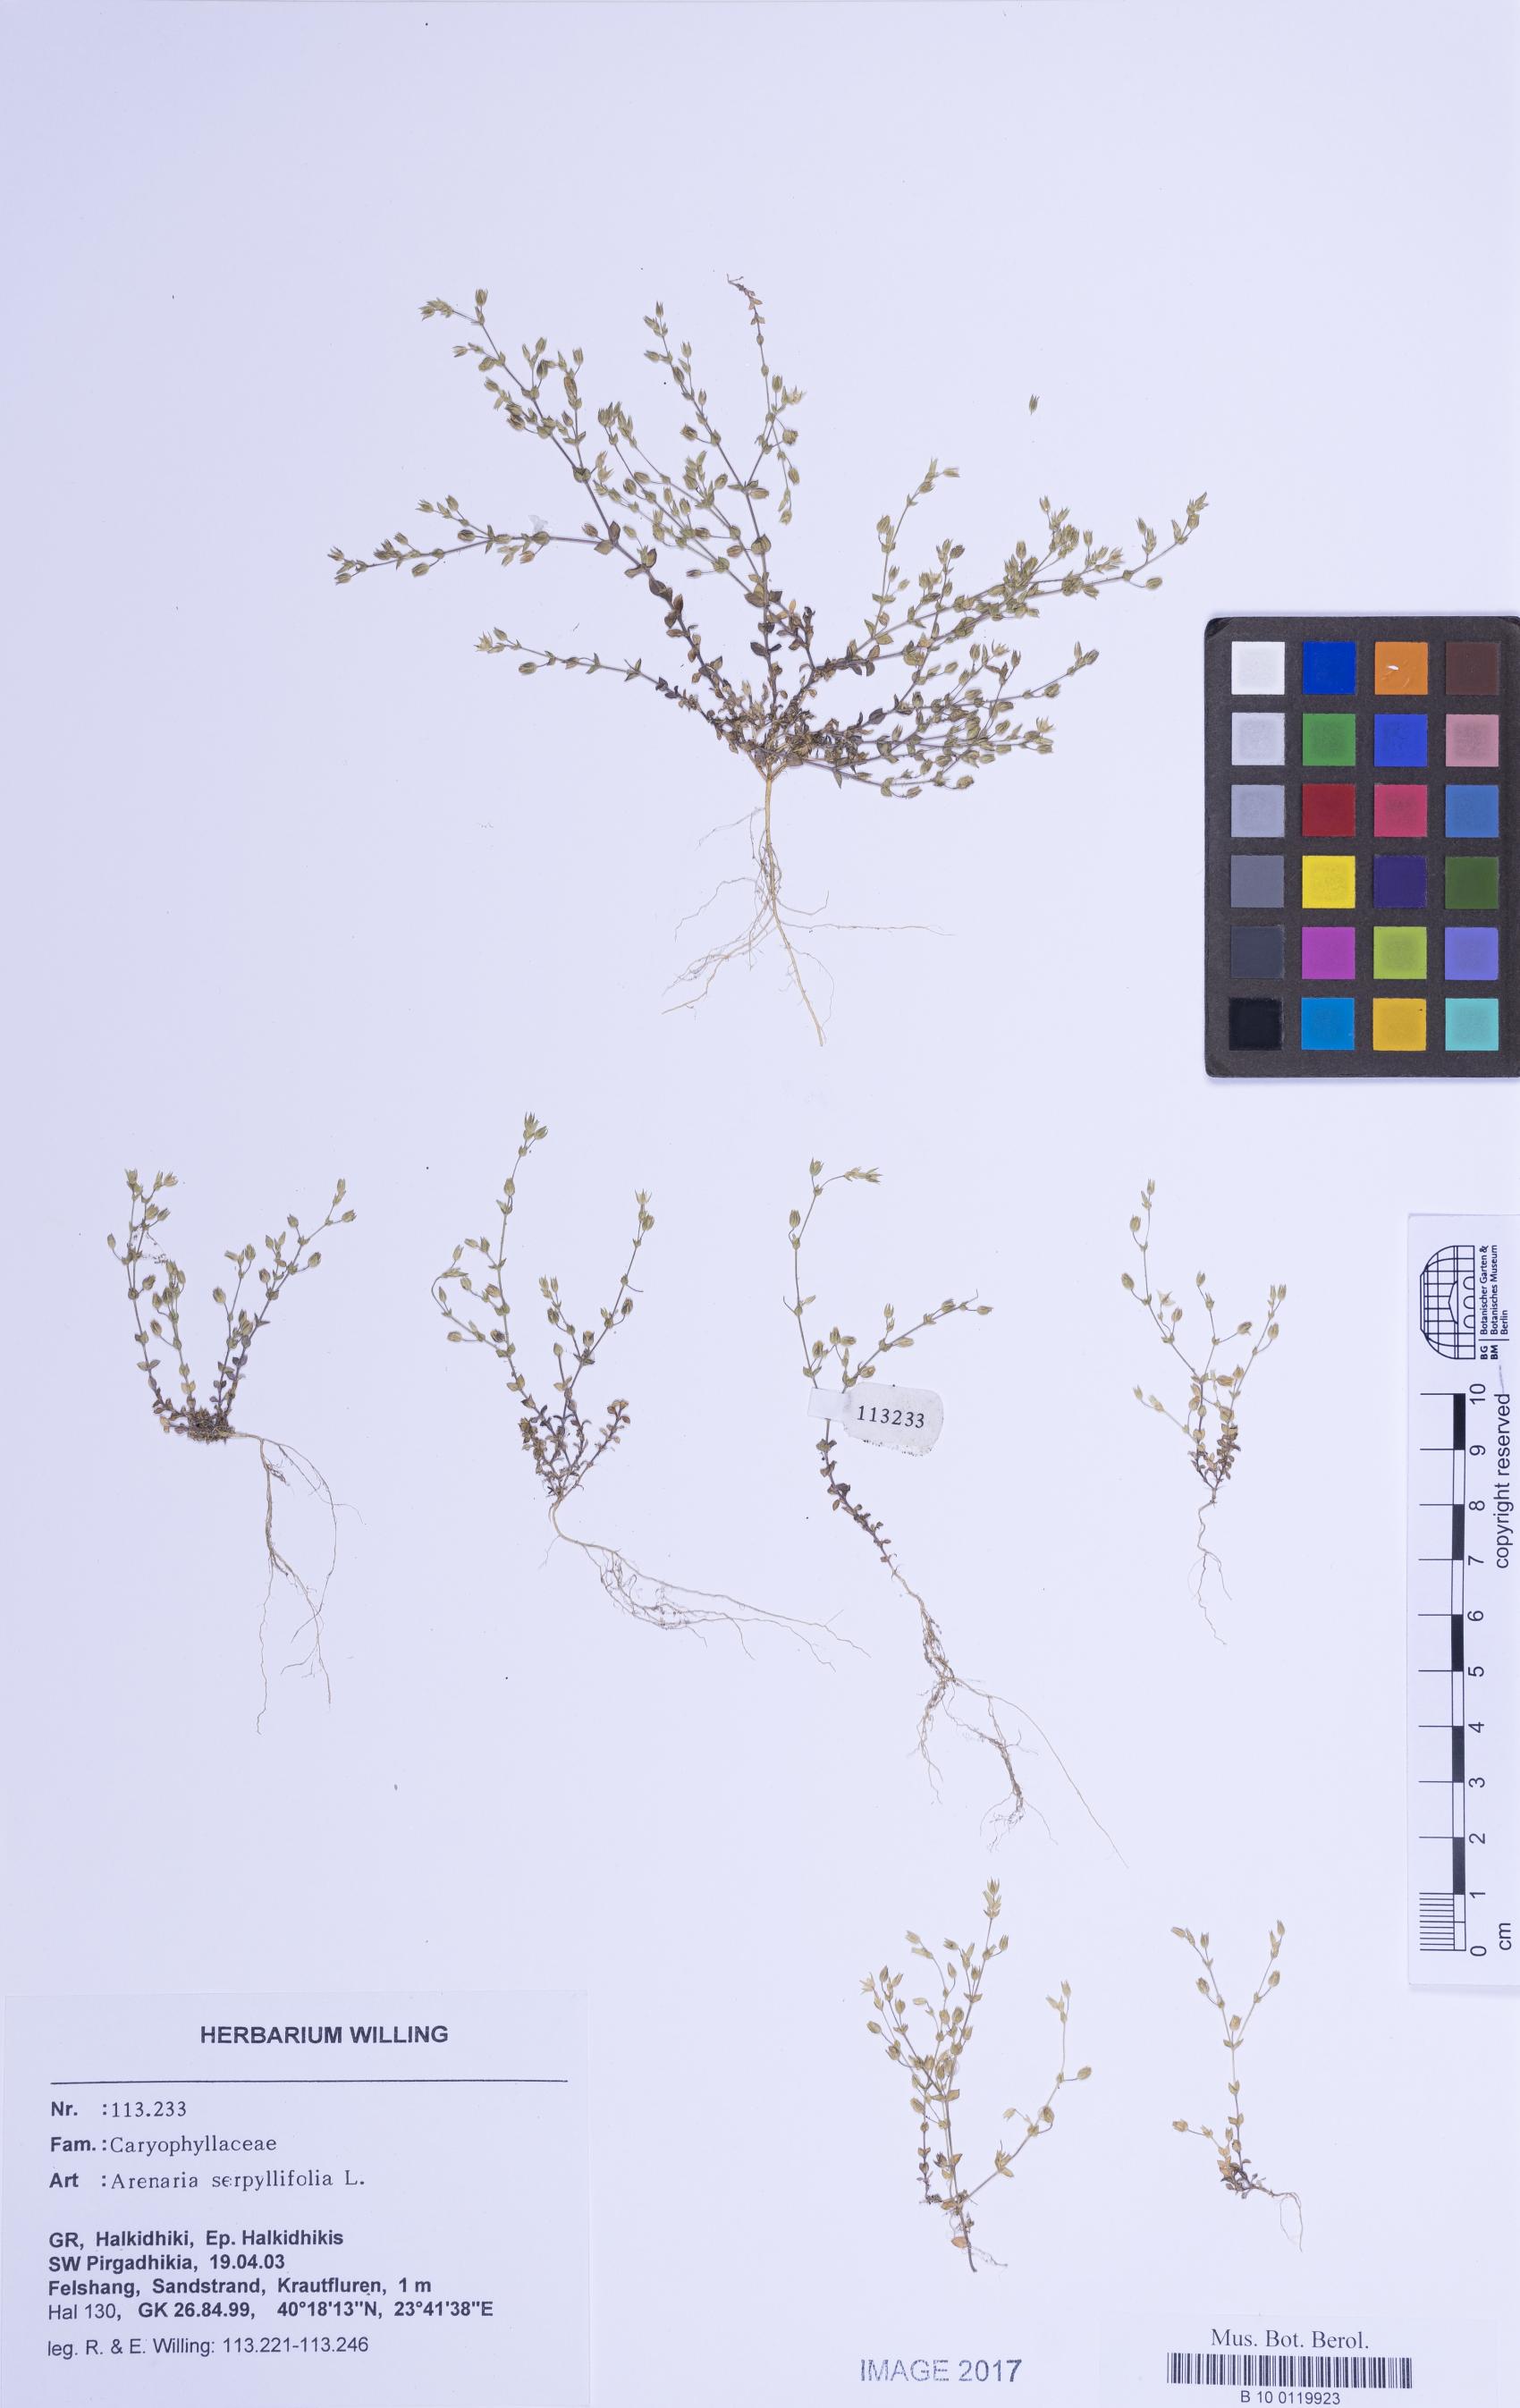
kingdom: Plantae
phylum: Tracheophyta
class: Magnoliopsida
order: Caryophyllales
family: Caryophyllaceae
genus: Arenaria
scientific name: Arenaria serpyllifolia
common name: Thyme-leaved sandwort
